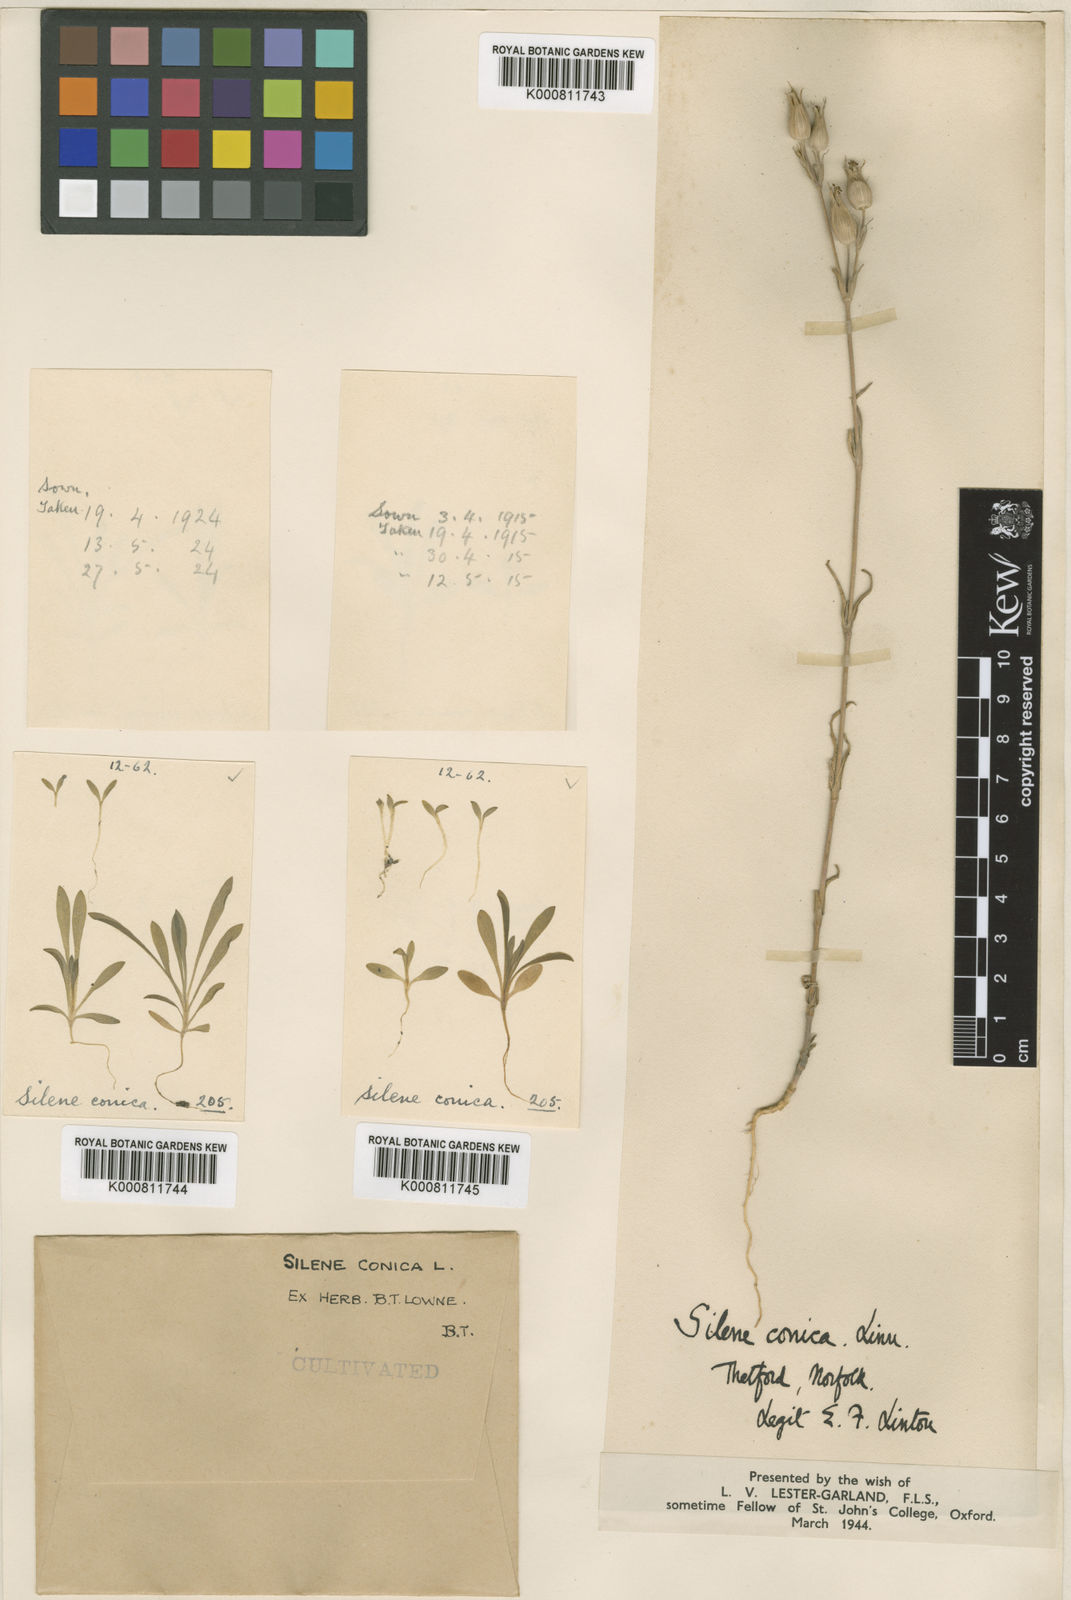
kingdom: Plantae
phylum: Tracheophyta
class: Magnoliopsida
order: Caryophyllales
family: Caryophyllaceae
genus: Silene
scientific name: Silene conica
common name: Sand catchfly
